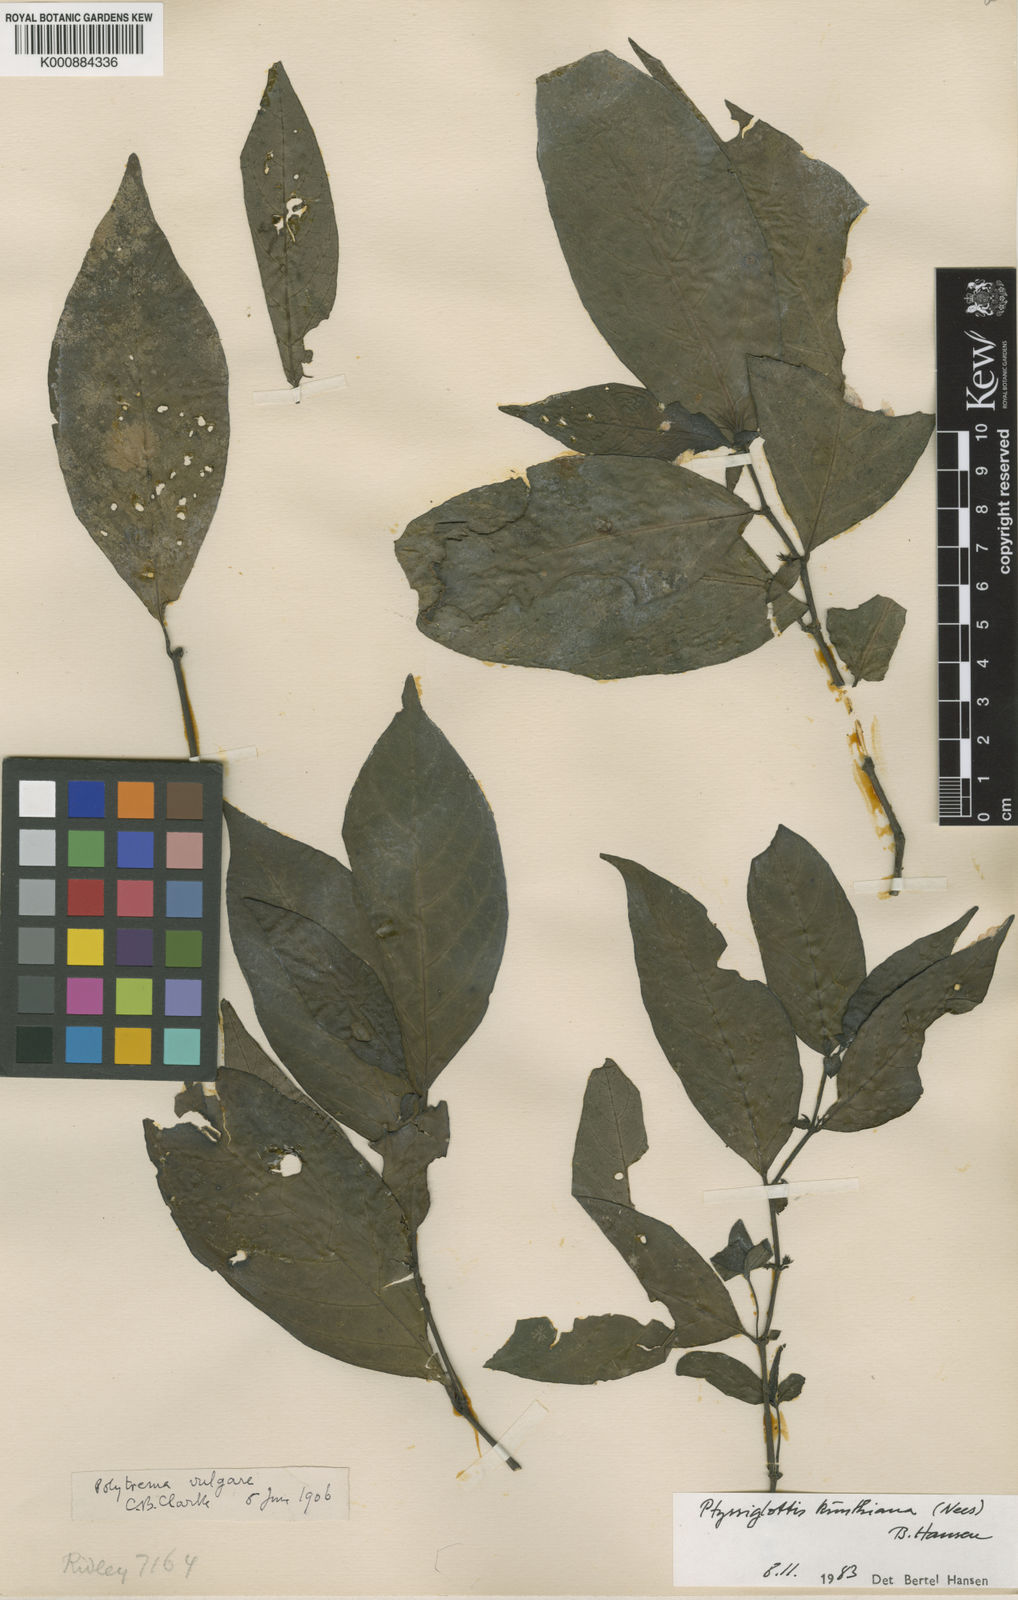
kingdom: Plantae
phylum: Tracheophyta
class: Magnoliopsida
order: Lamiales
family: Acanthaceae
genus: Ptyssiglottis
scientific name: Ptyssiglottis kunthiana
